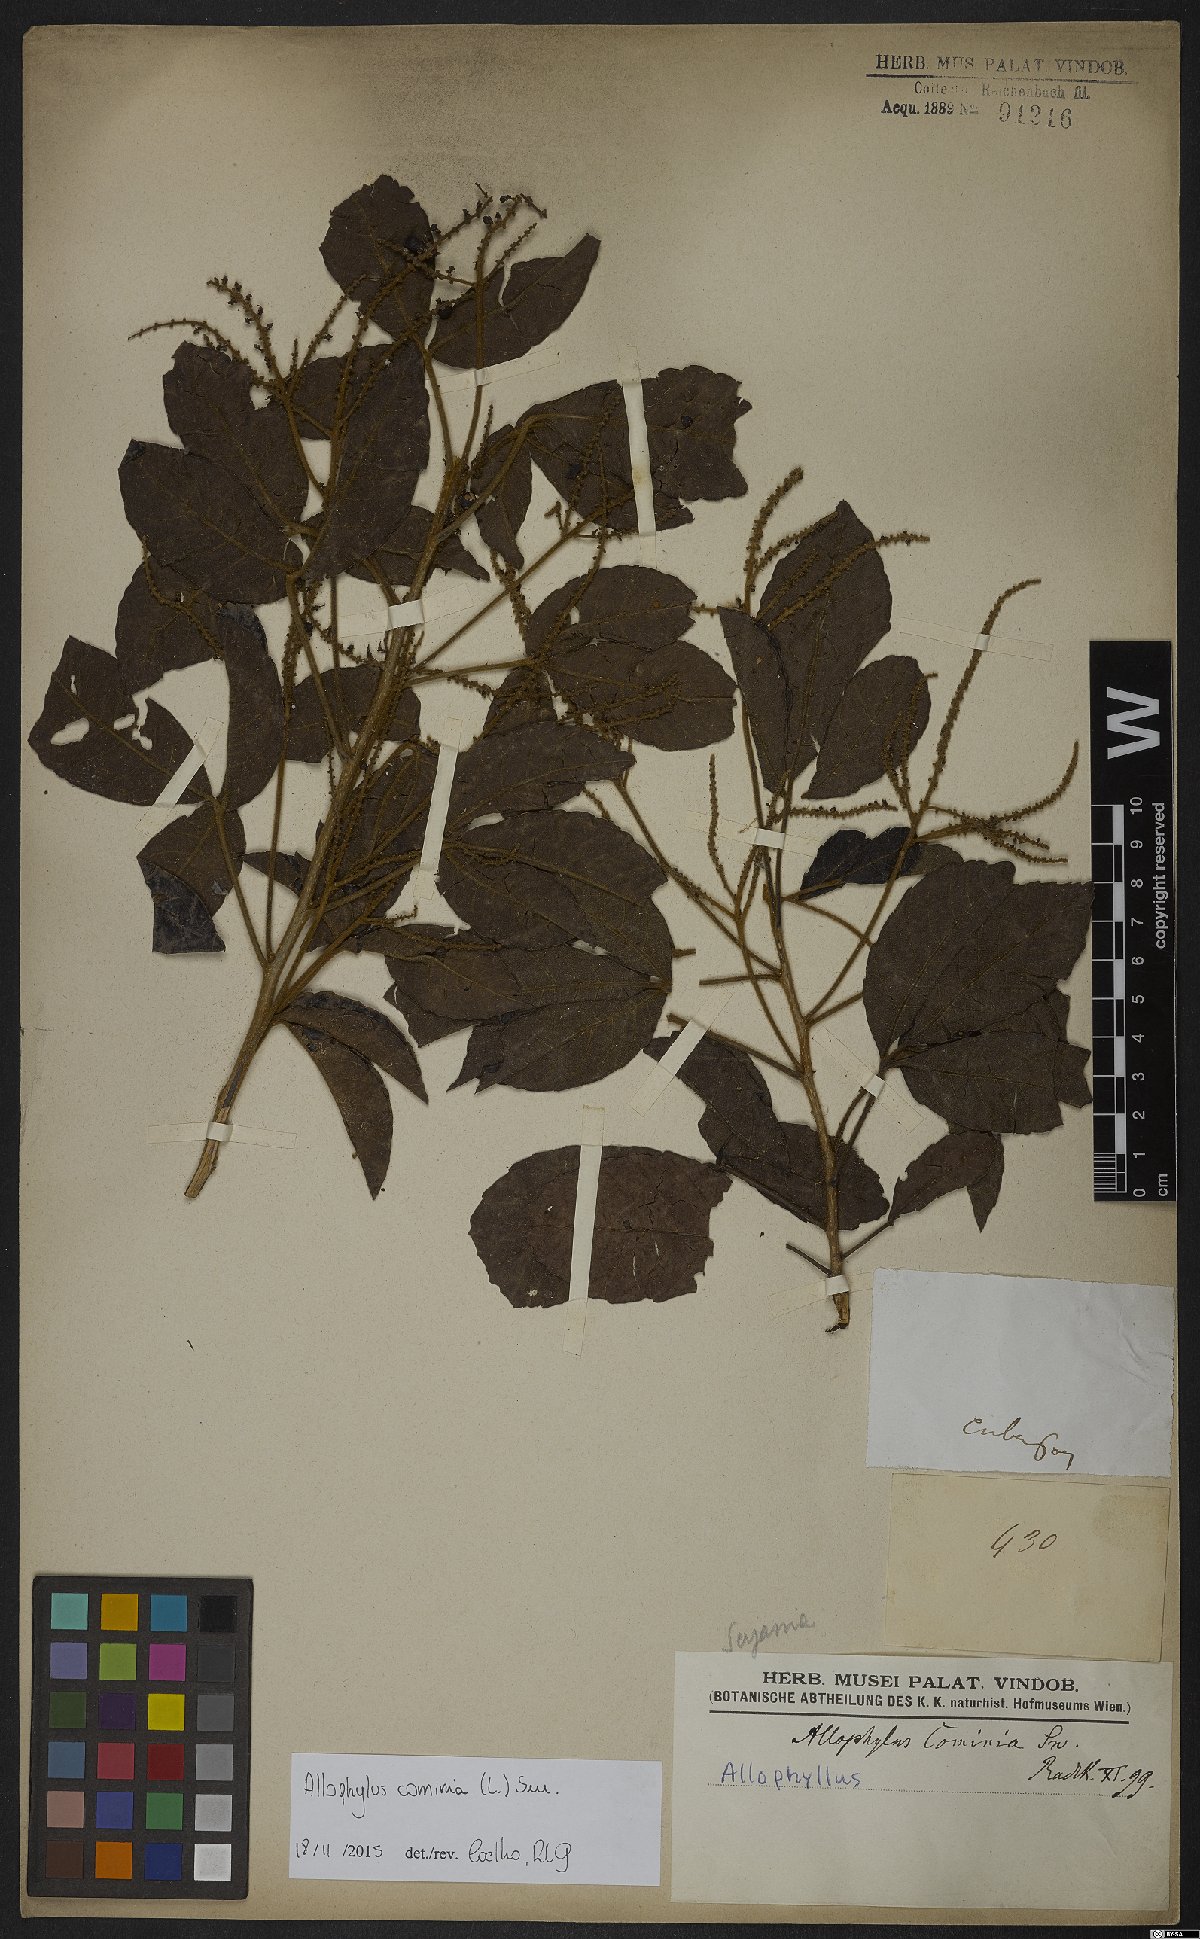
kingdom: Plantae
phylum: Tracheophyta
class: Magnoliopsida
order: Sapindales
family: Sapindaceae
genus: Allophylus
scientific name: Allophylus cominia
